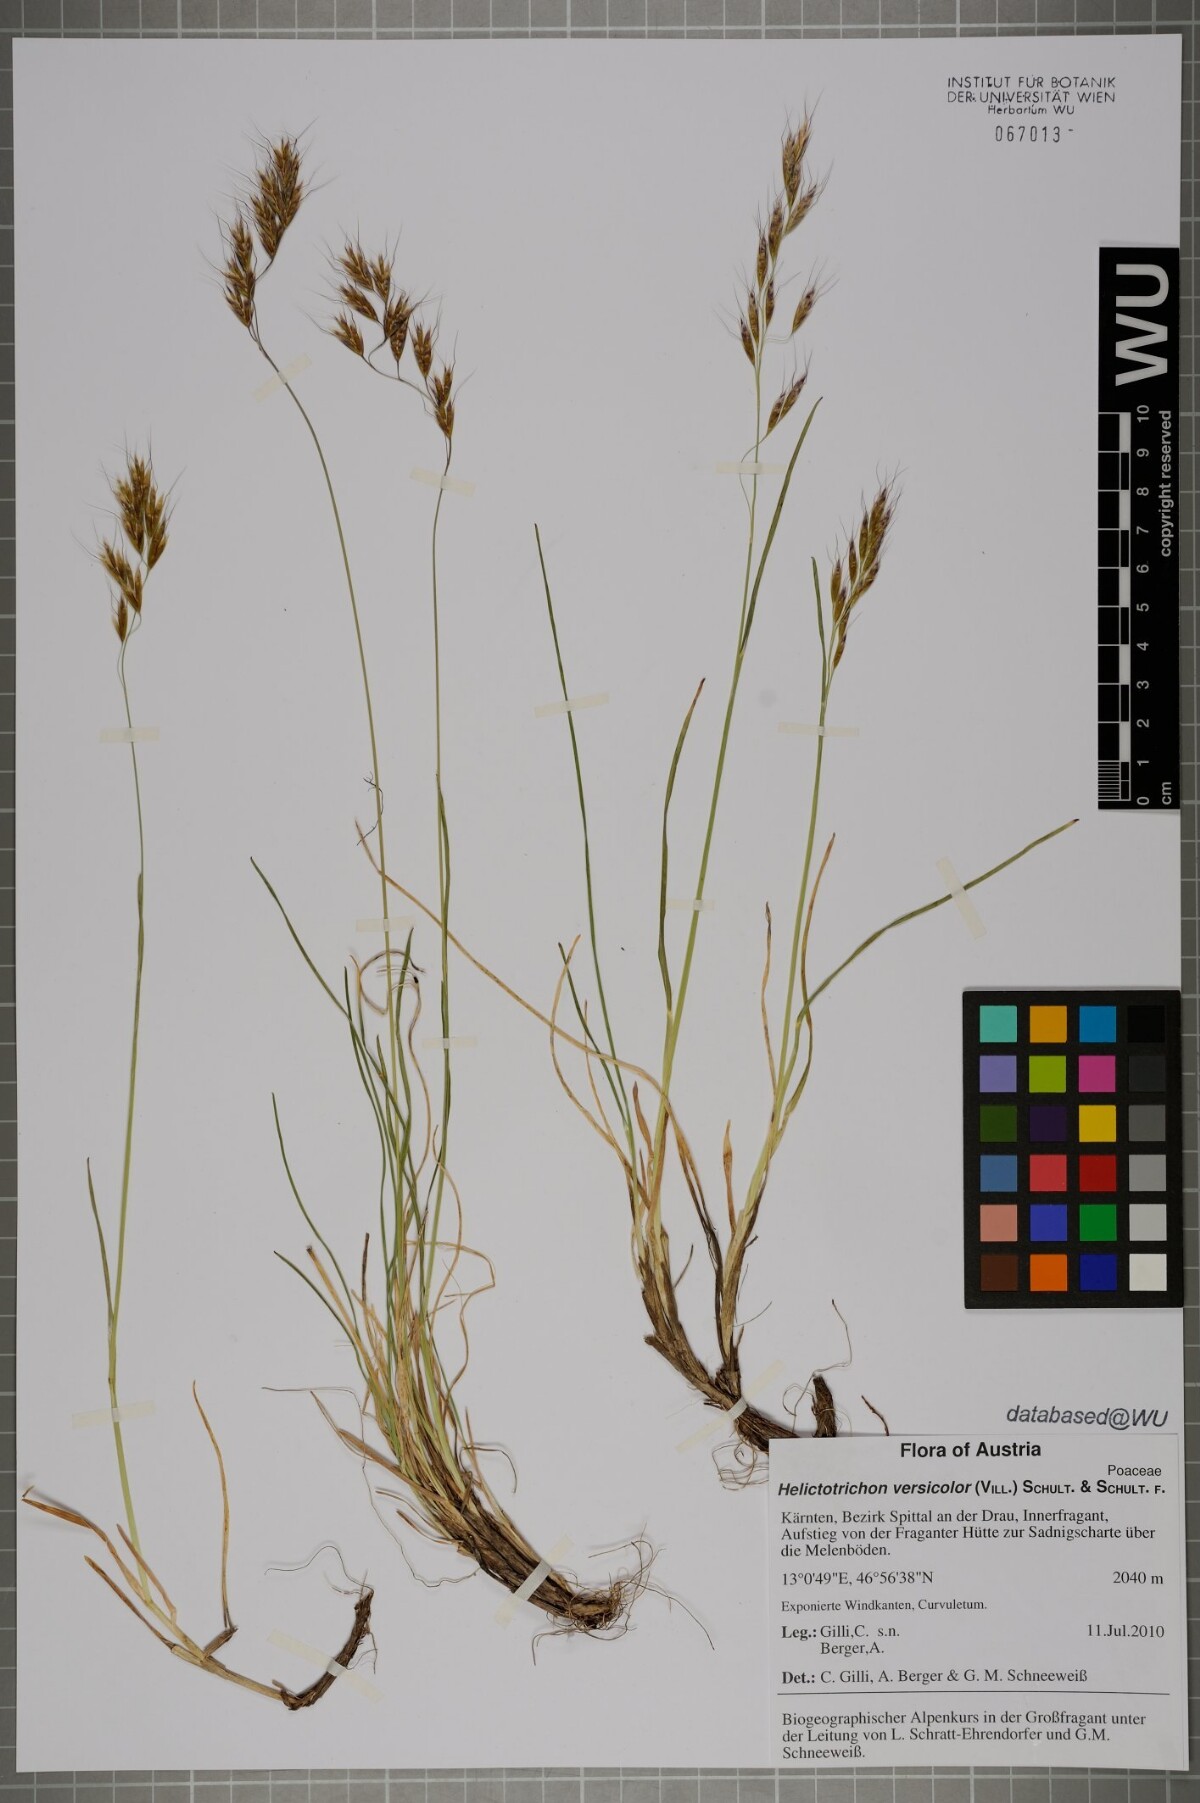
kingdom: Plantae
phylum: Tracheophyta
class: Liliopsida
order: Poales
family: Poaceae
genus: Helictochloa
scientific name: Helictochloa versicolor
